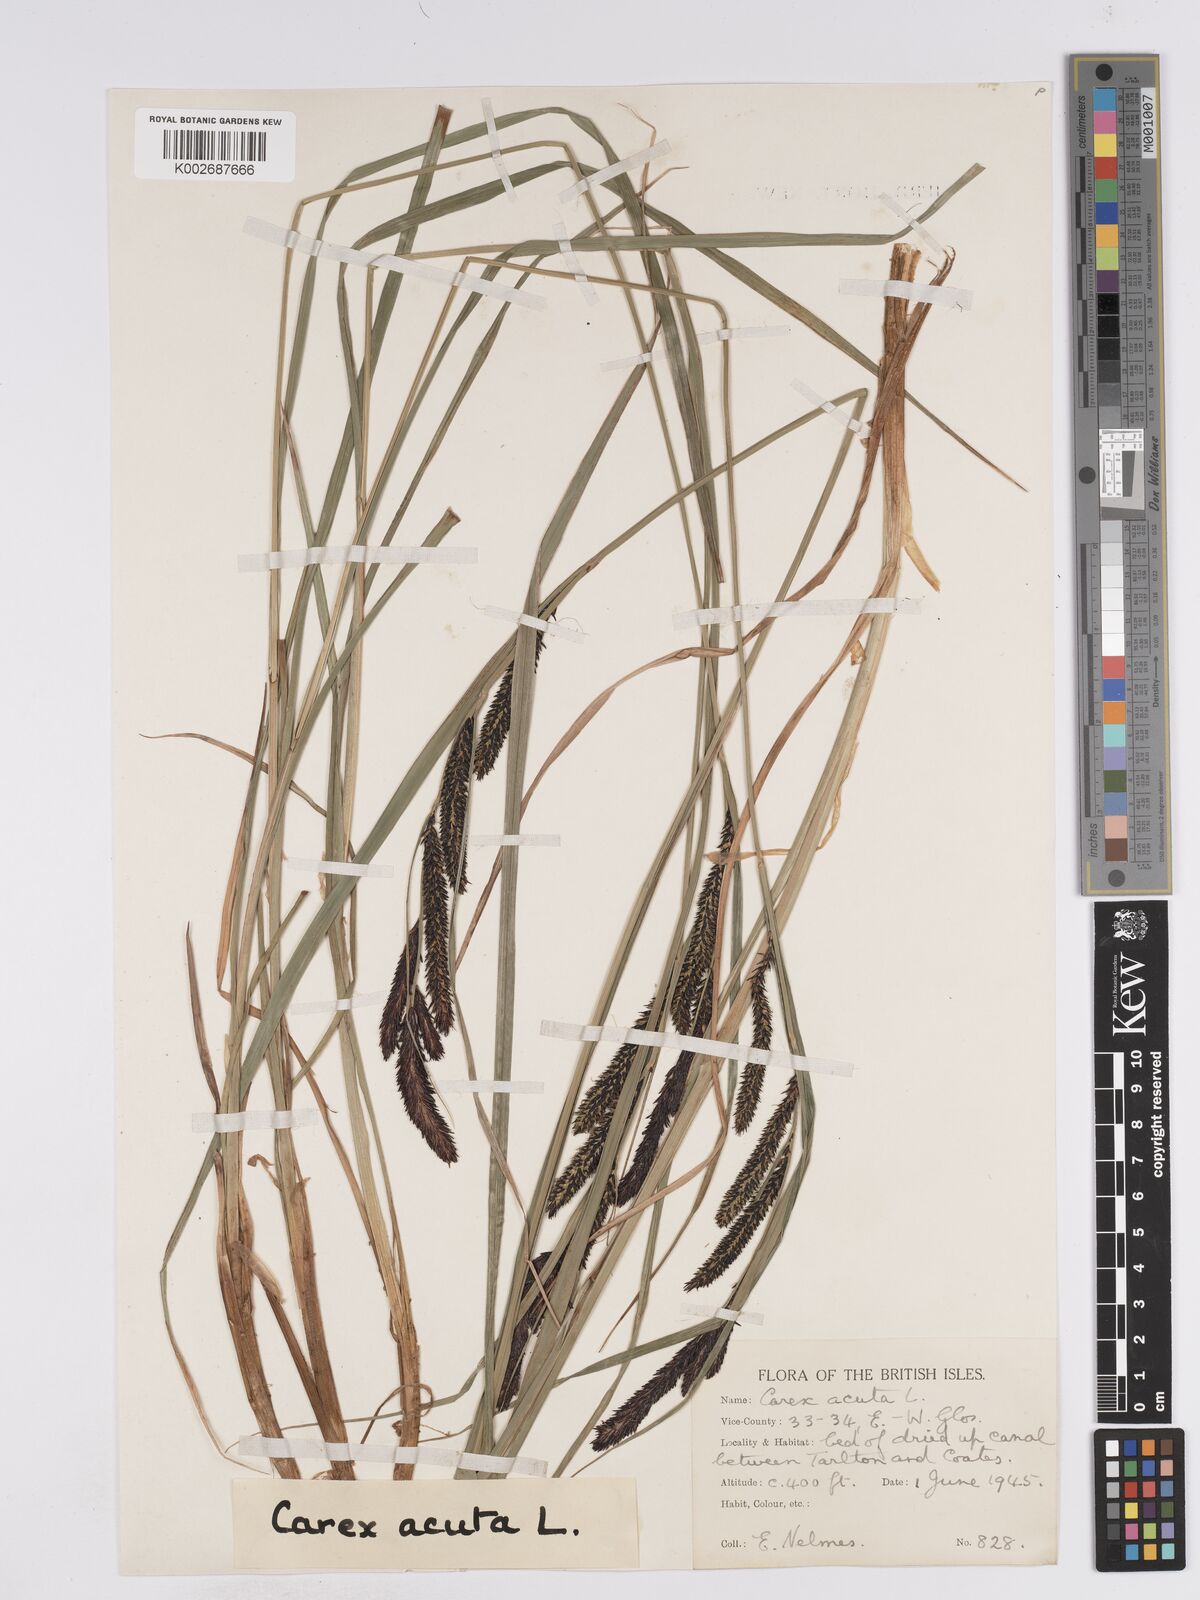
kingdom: Plantae
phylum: Tracheophyta
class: Liliopsida
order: Poales
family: Cyperaceae
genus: Carex
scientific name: Carex acuta
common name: Slender tufted-sedge
